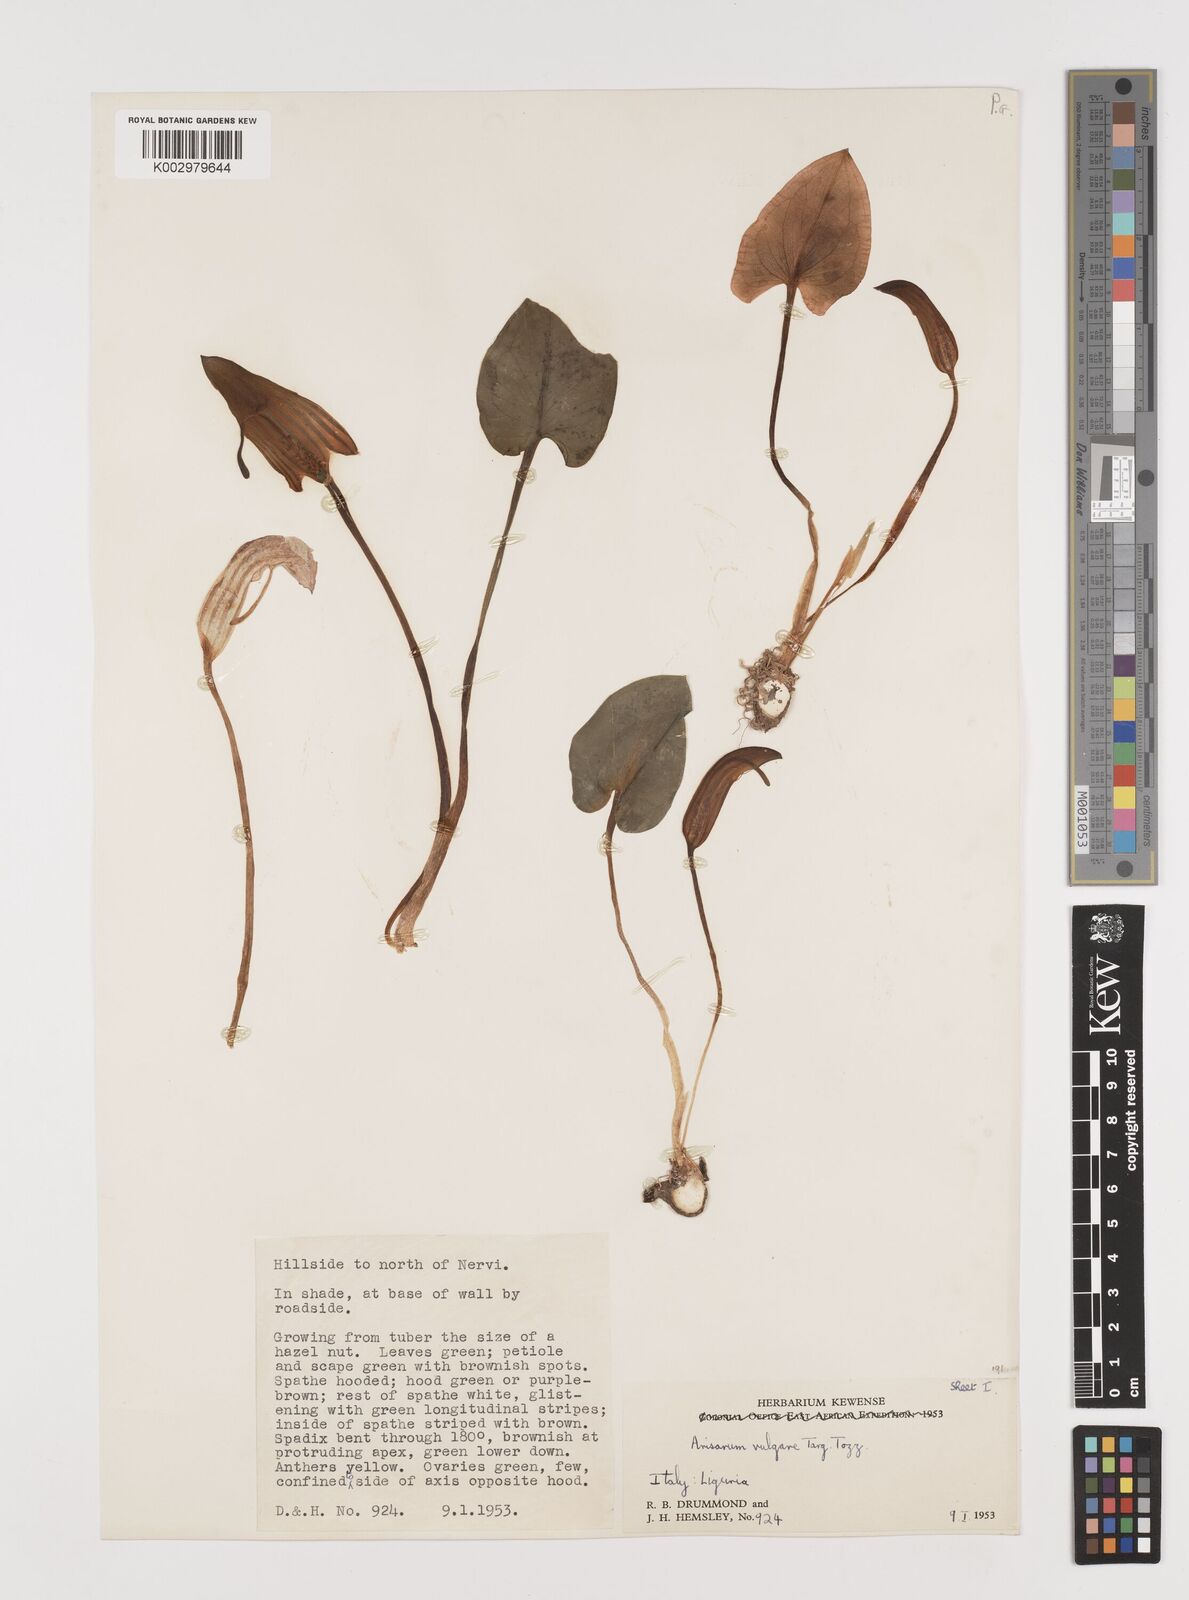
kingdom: Plantae
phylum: Tracheophyta
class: Liliopsida
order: Alismatales
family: Araceae
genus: Arisarum
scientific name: Arisarum vulgare
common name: Common arisarum
